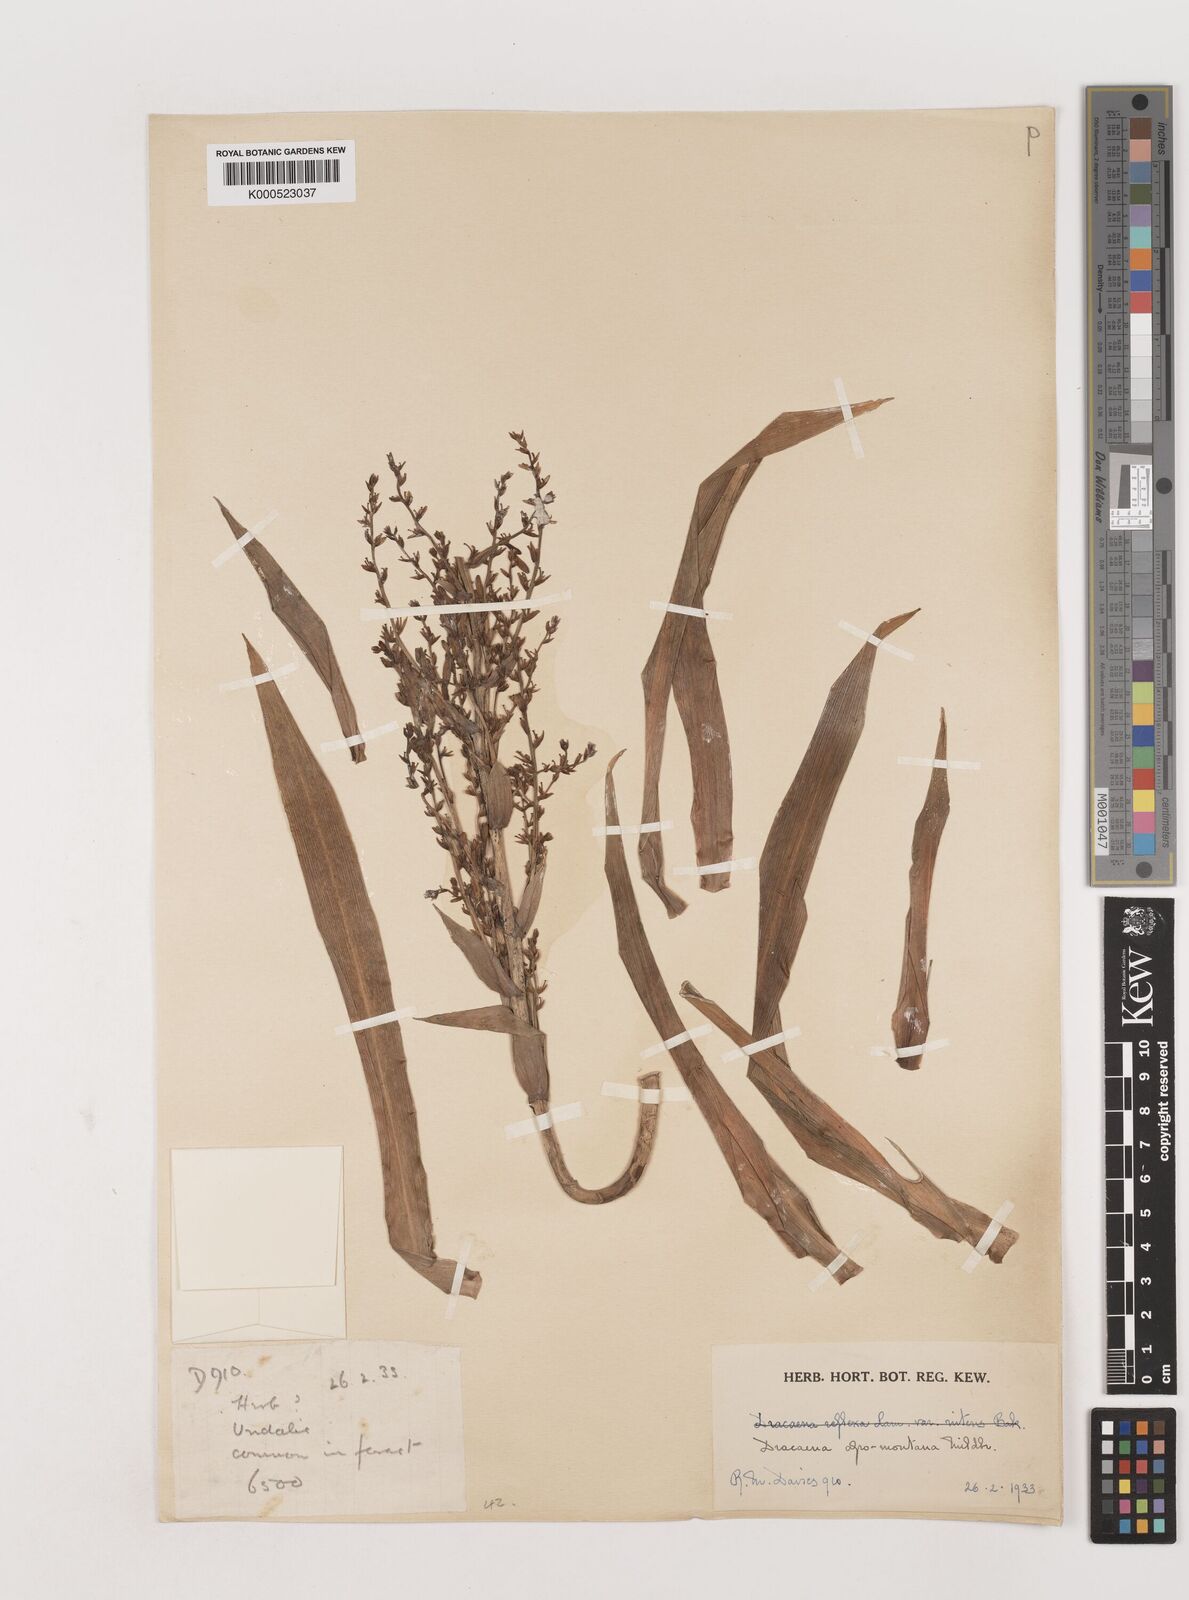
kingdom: Plantae
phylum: Tracheophyta
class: Liliopsida
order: Asparagales
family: Asparagaceae
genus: Dracaena
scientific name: Dracaena afromontana
